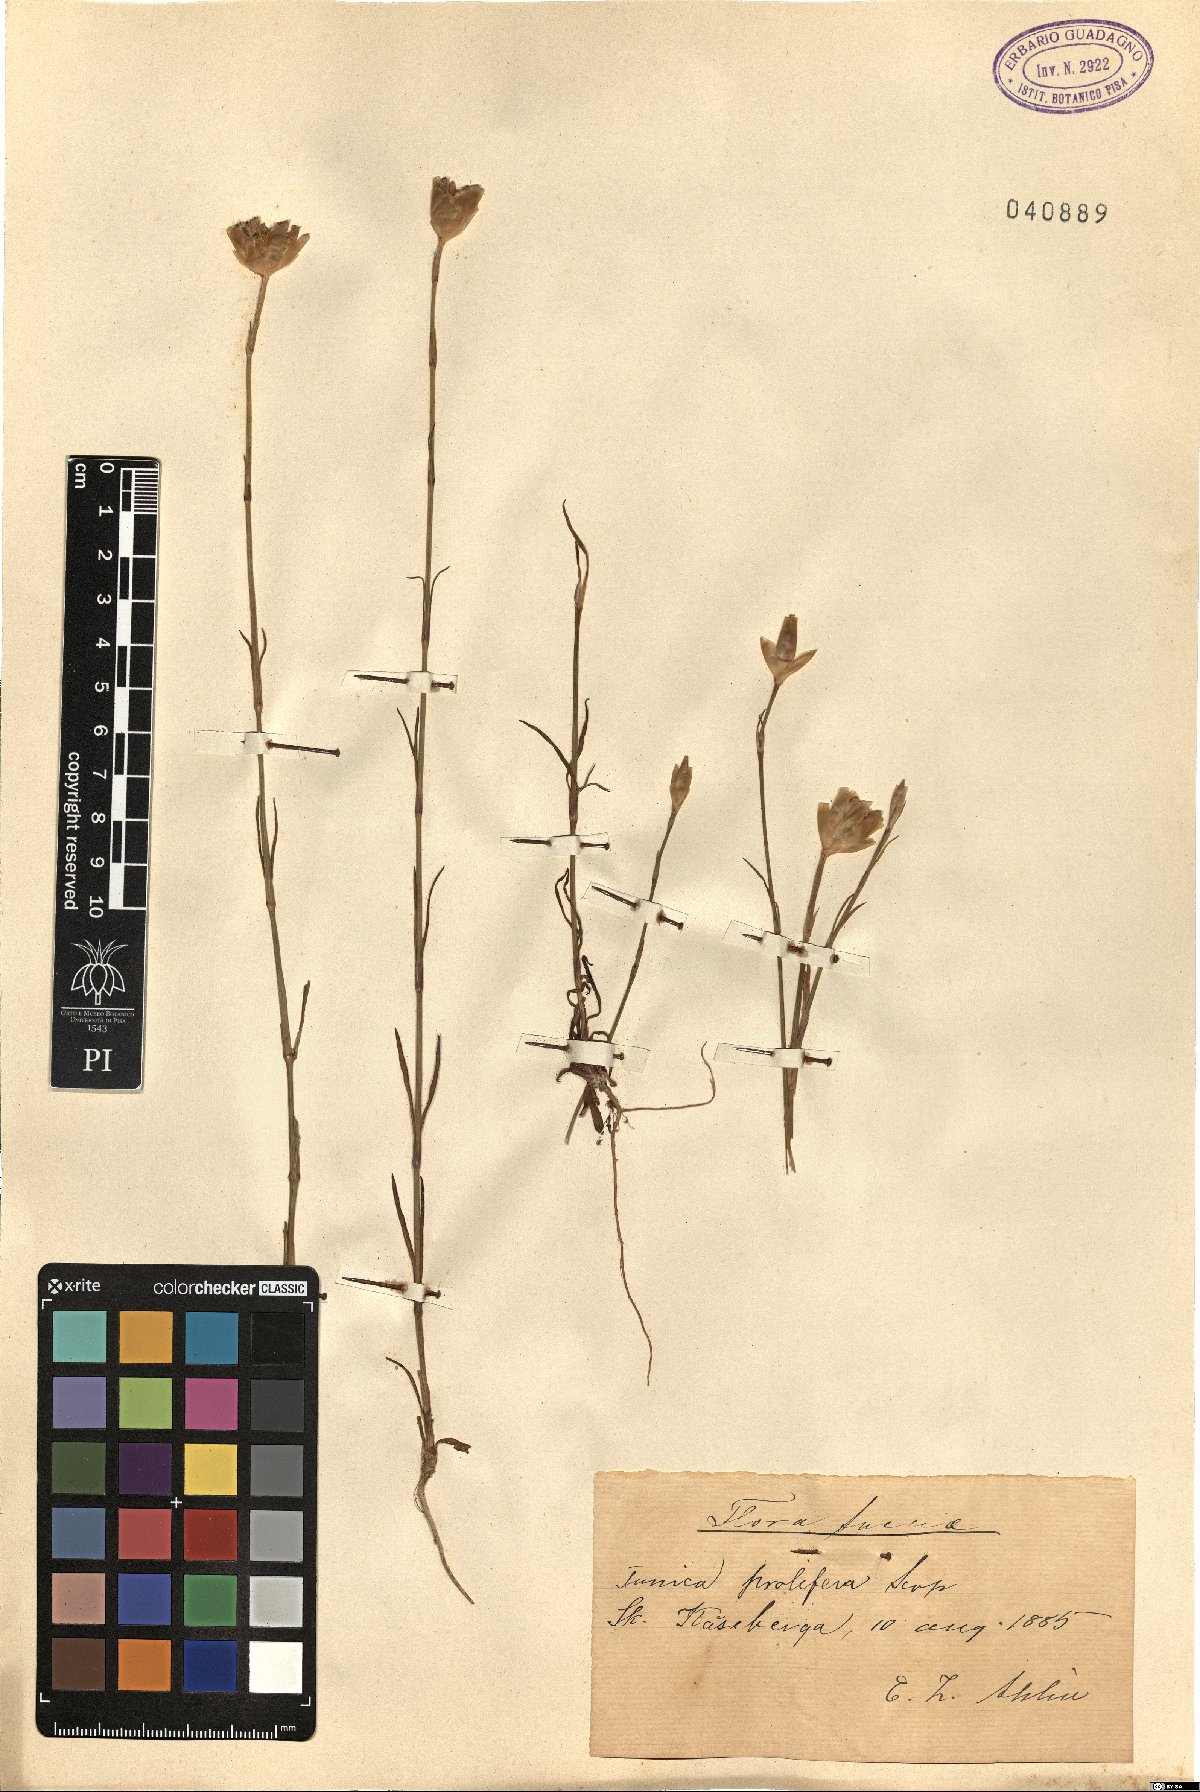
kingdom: Plantae
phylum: Tracheophyta
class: Magnoliopsida
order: Caryophyllales
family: Caryophyllaceae
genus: Petrorhagia
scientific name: Petrorhagia prolifera
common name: Proliferous pink
